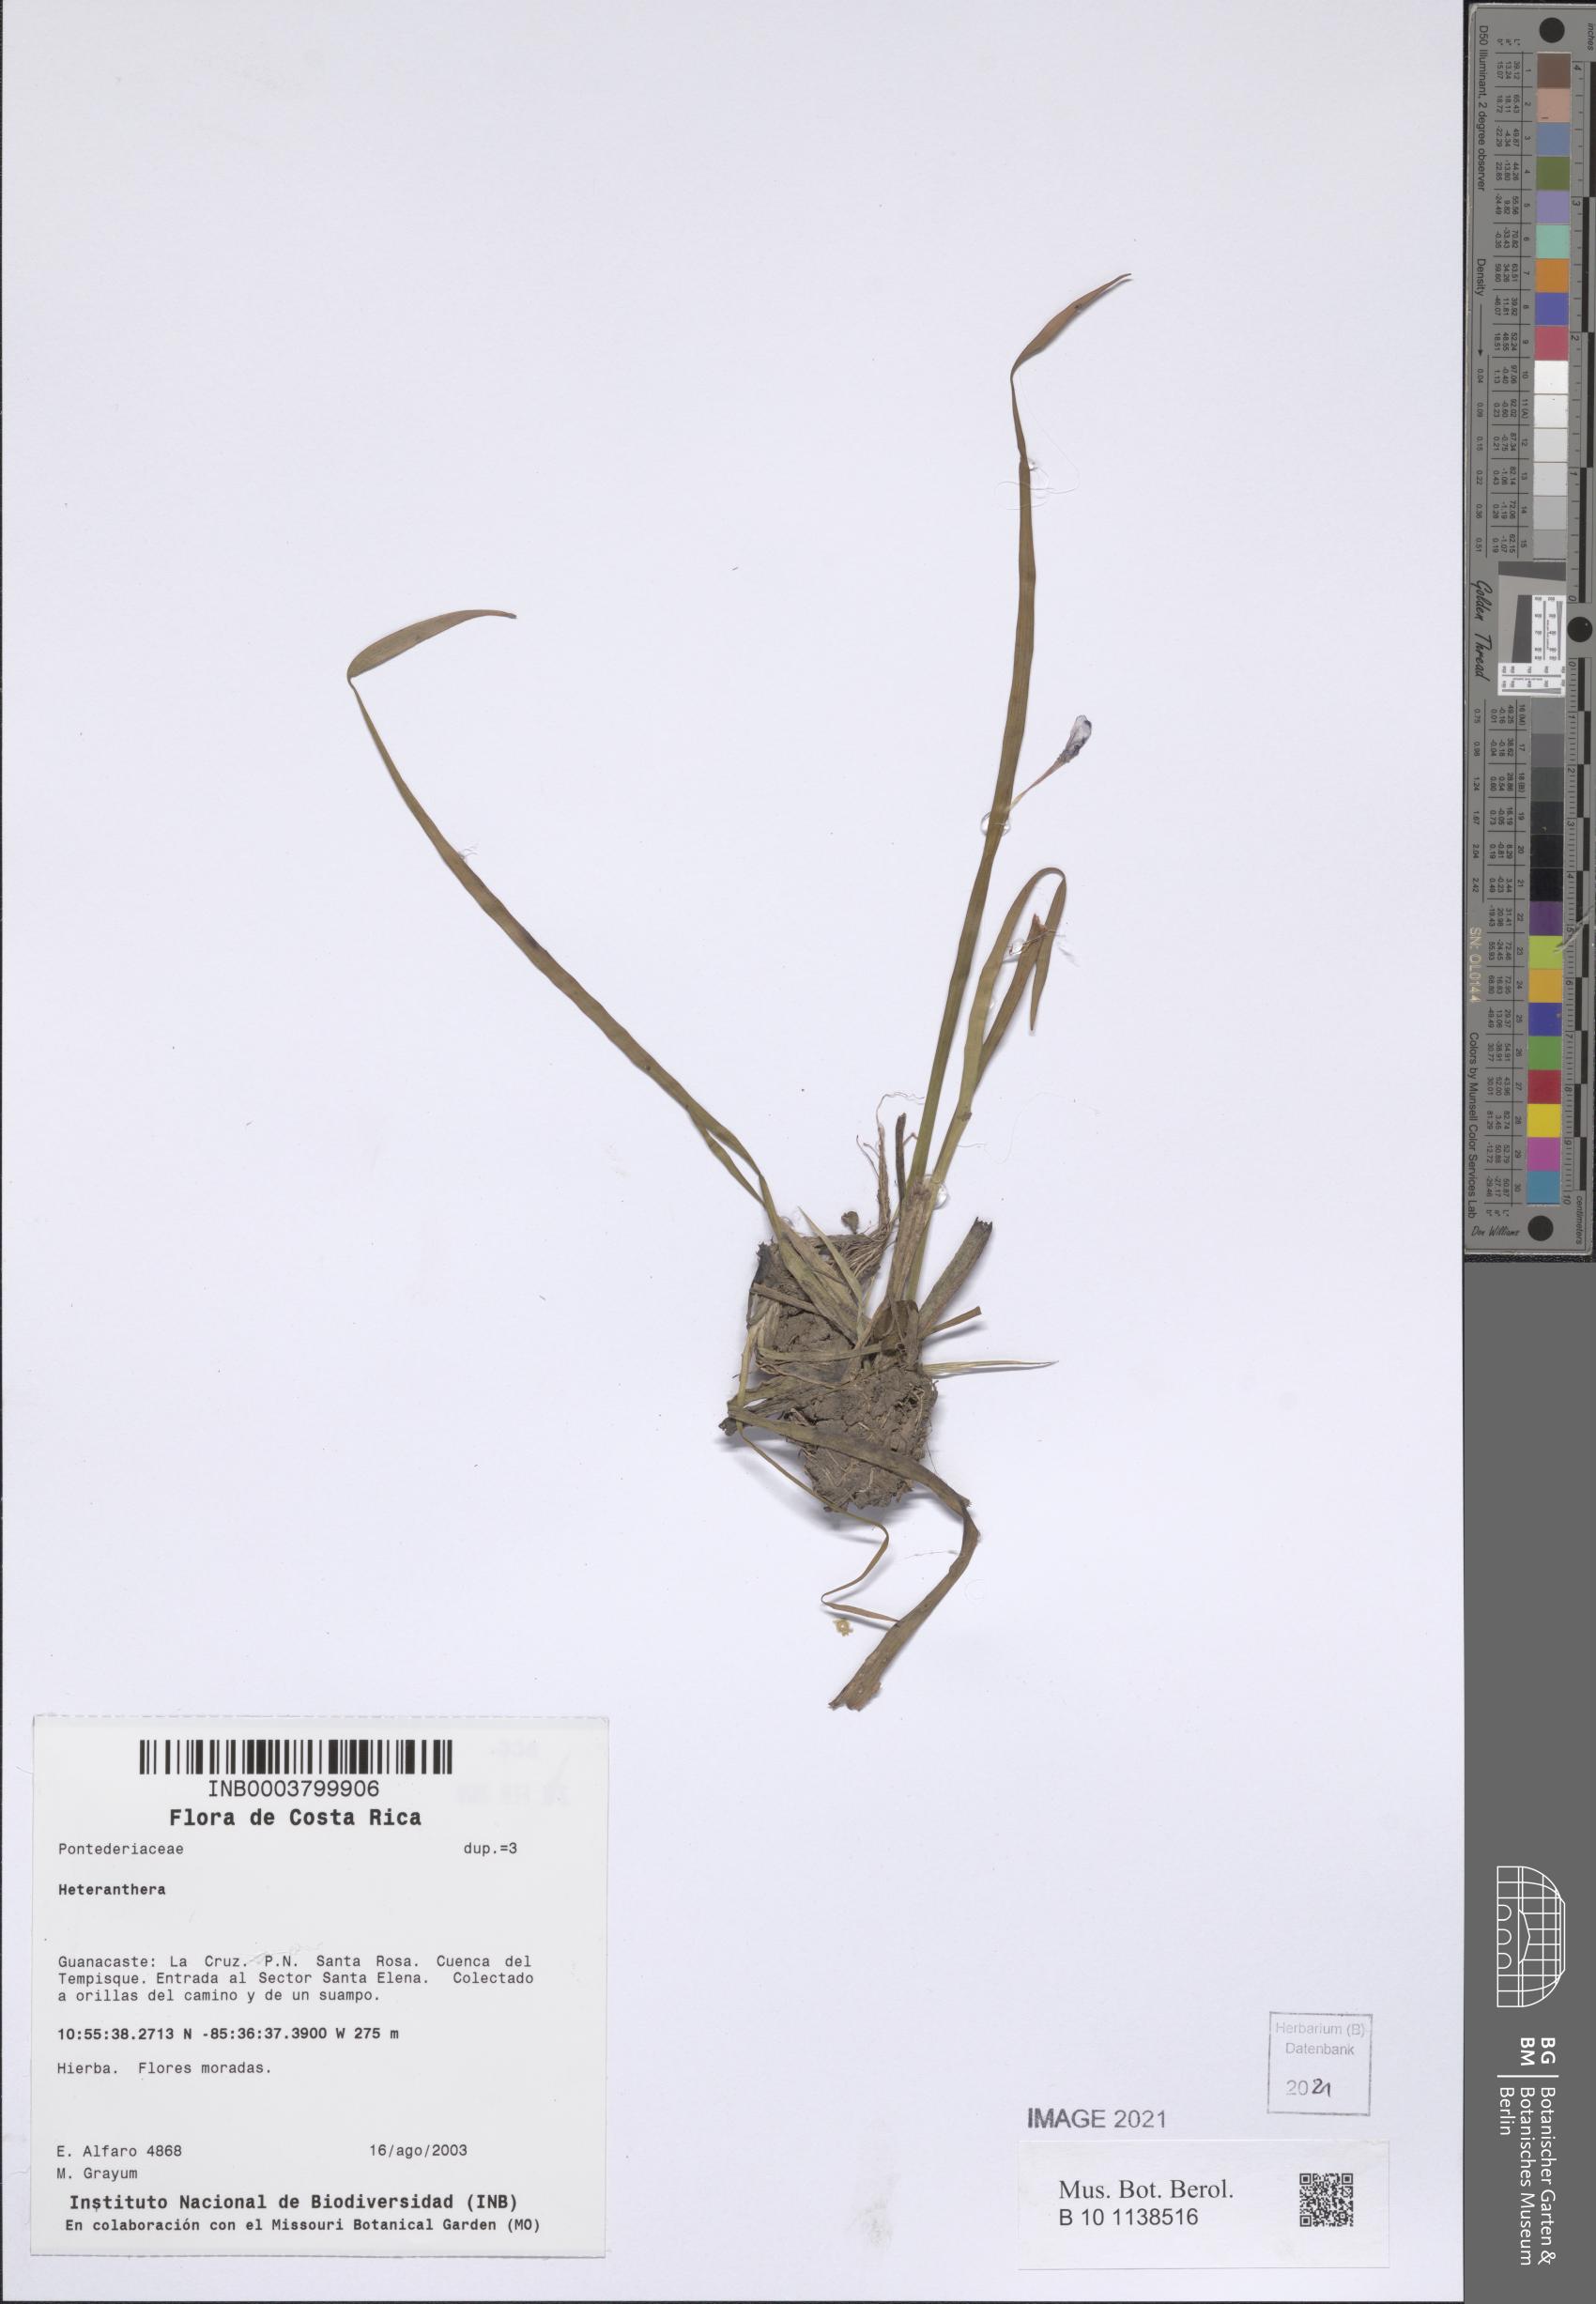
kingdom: Plantae
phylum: Tracheophyta
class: Liliopsida
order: Commelinales
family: Pontederiaceae
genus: Heteranthera
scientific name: Heteranthera
